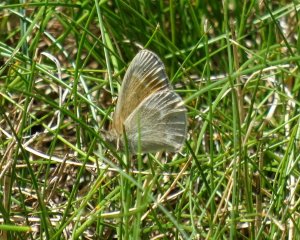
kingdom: Animalia
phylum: Arthropoda
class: Insecta
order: Lepidoptera
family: Nymphalidae
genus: Coenonympha
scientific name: Coenonympha tullia
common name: Large Heath
